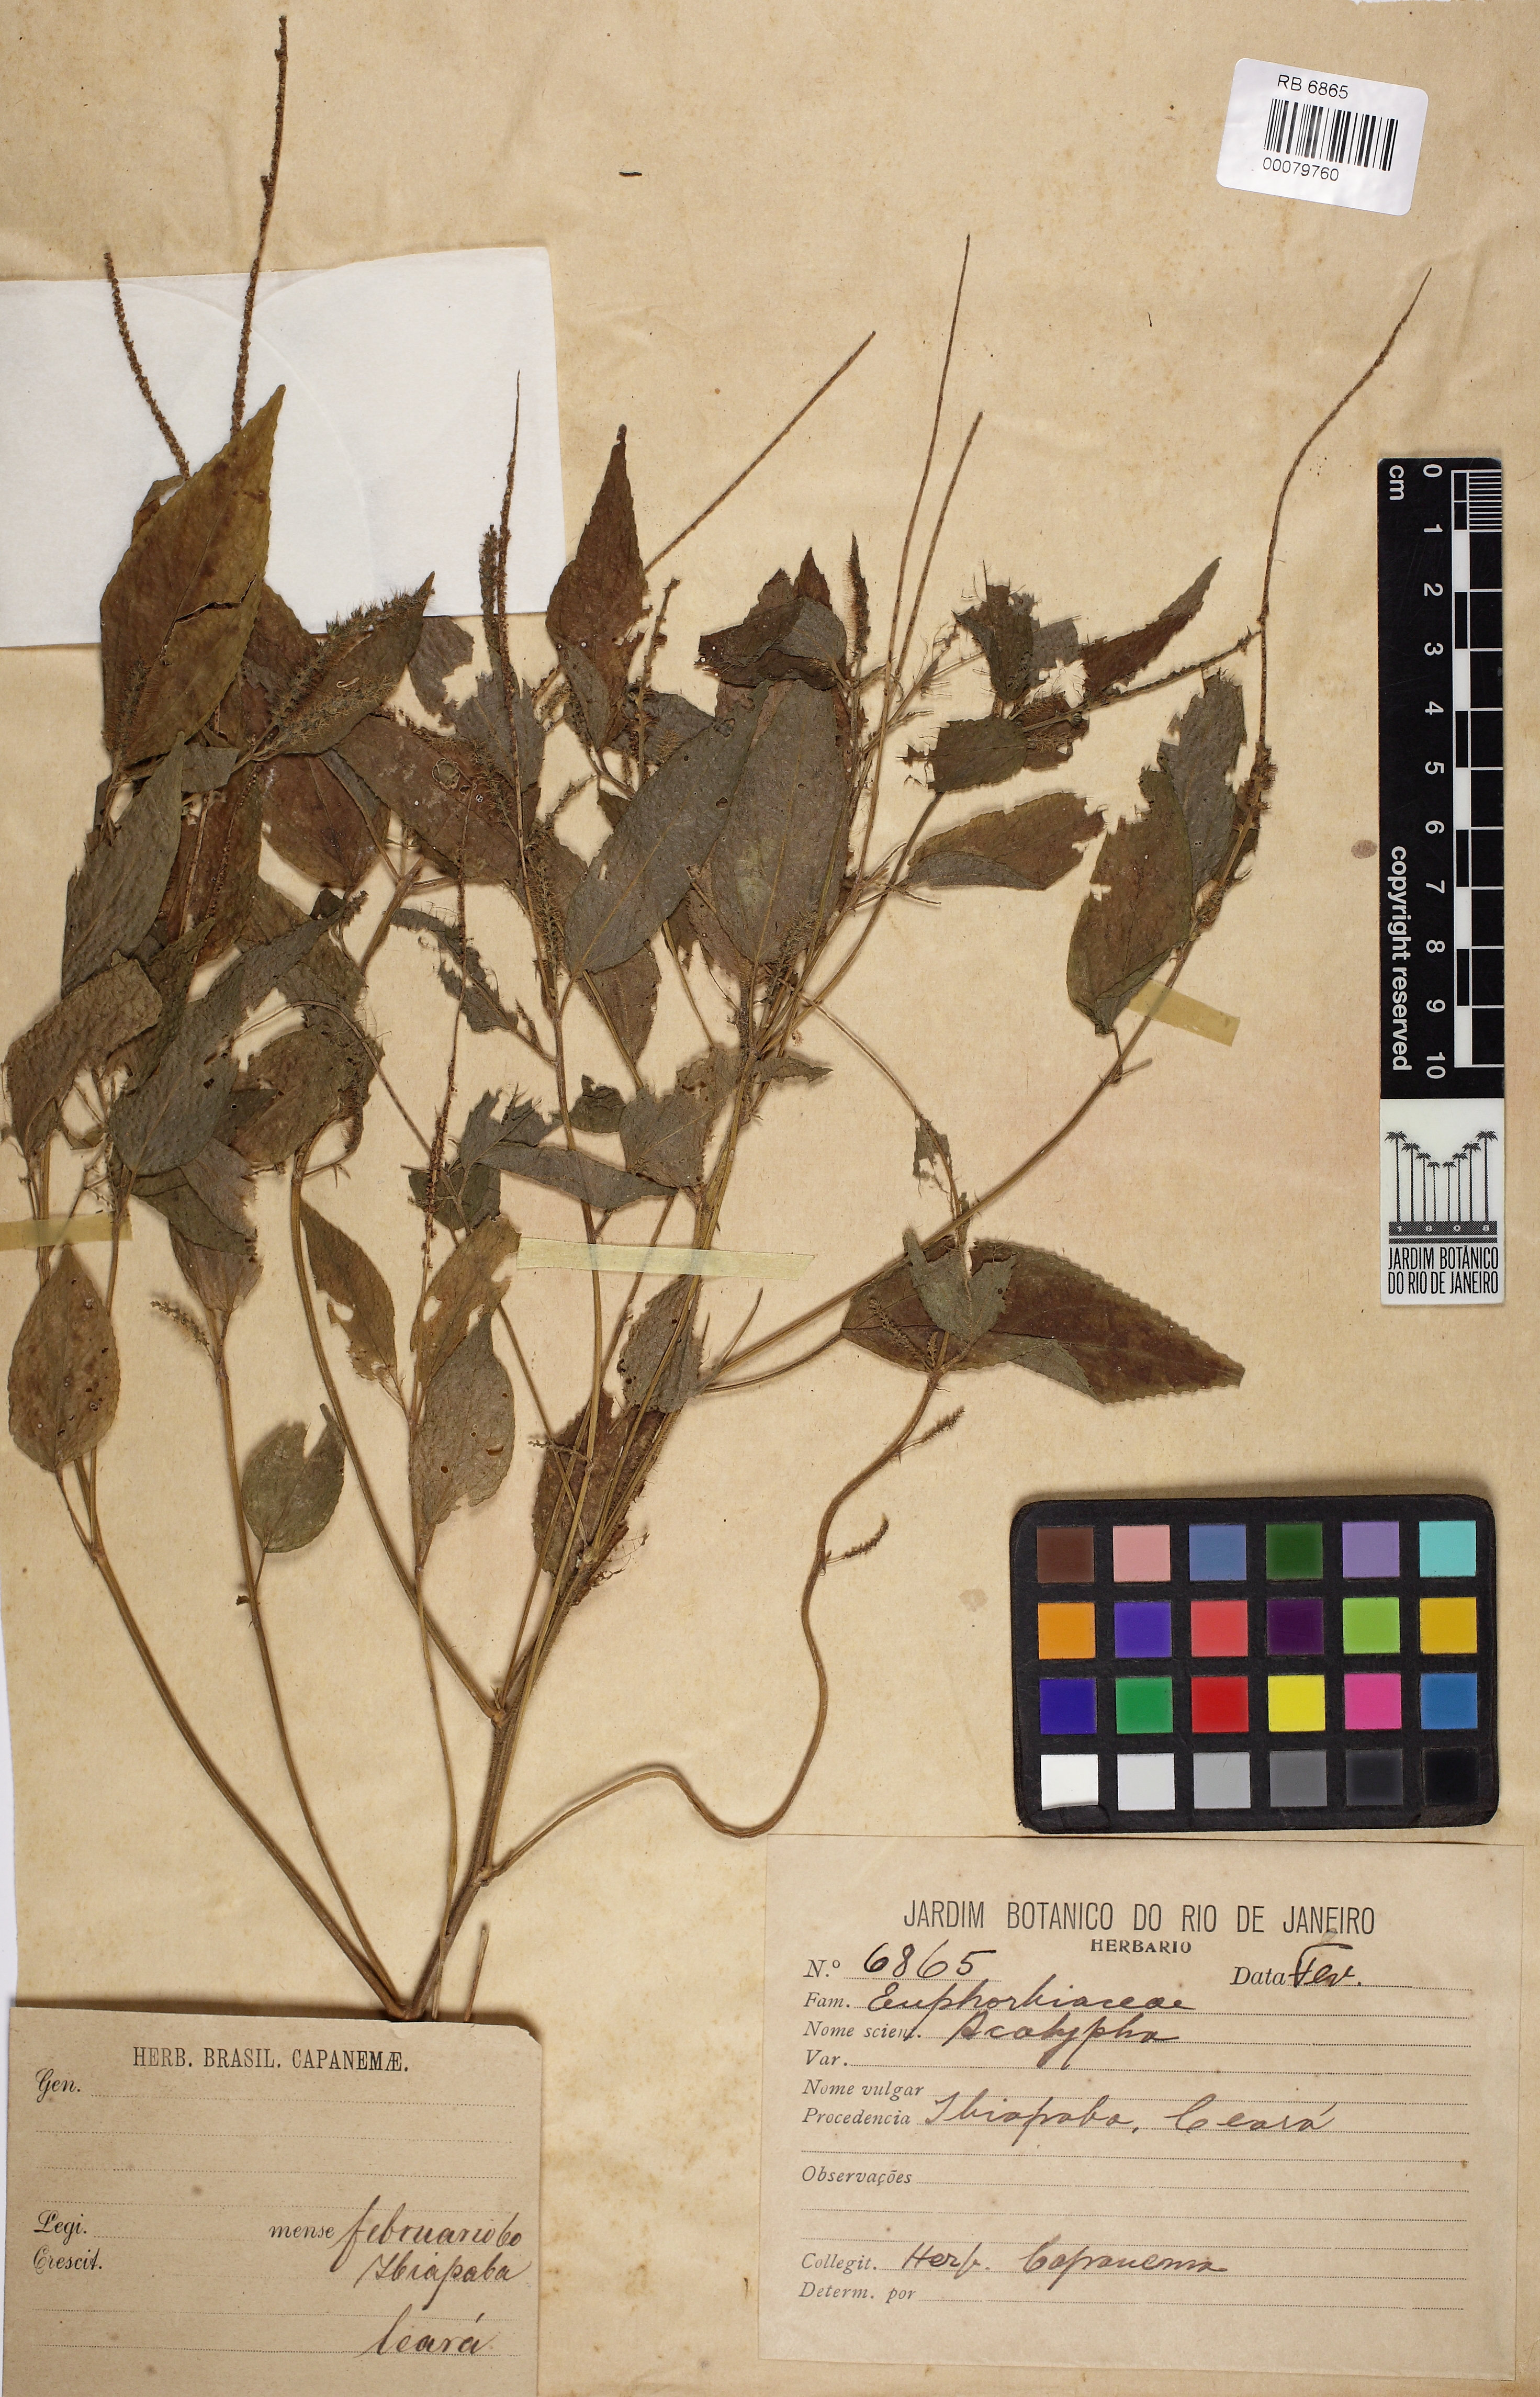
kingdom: Plantae
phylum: Tracheophyta
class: Magnoliopsida
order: Malpighiales
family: Euphorbiaceae
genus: Acalypha
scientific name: Acalypha gracilis
